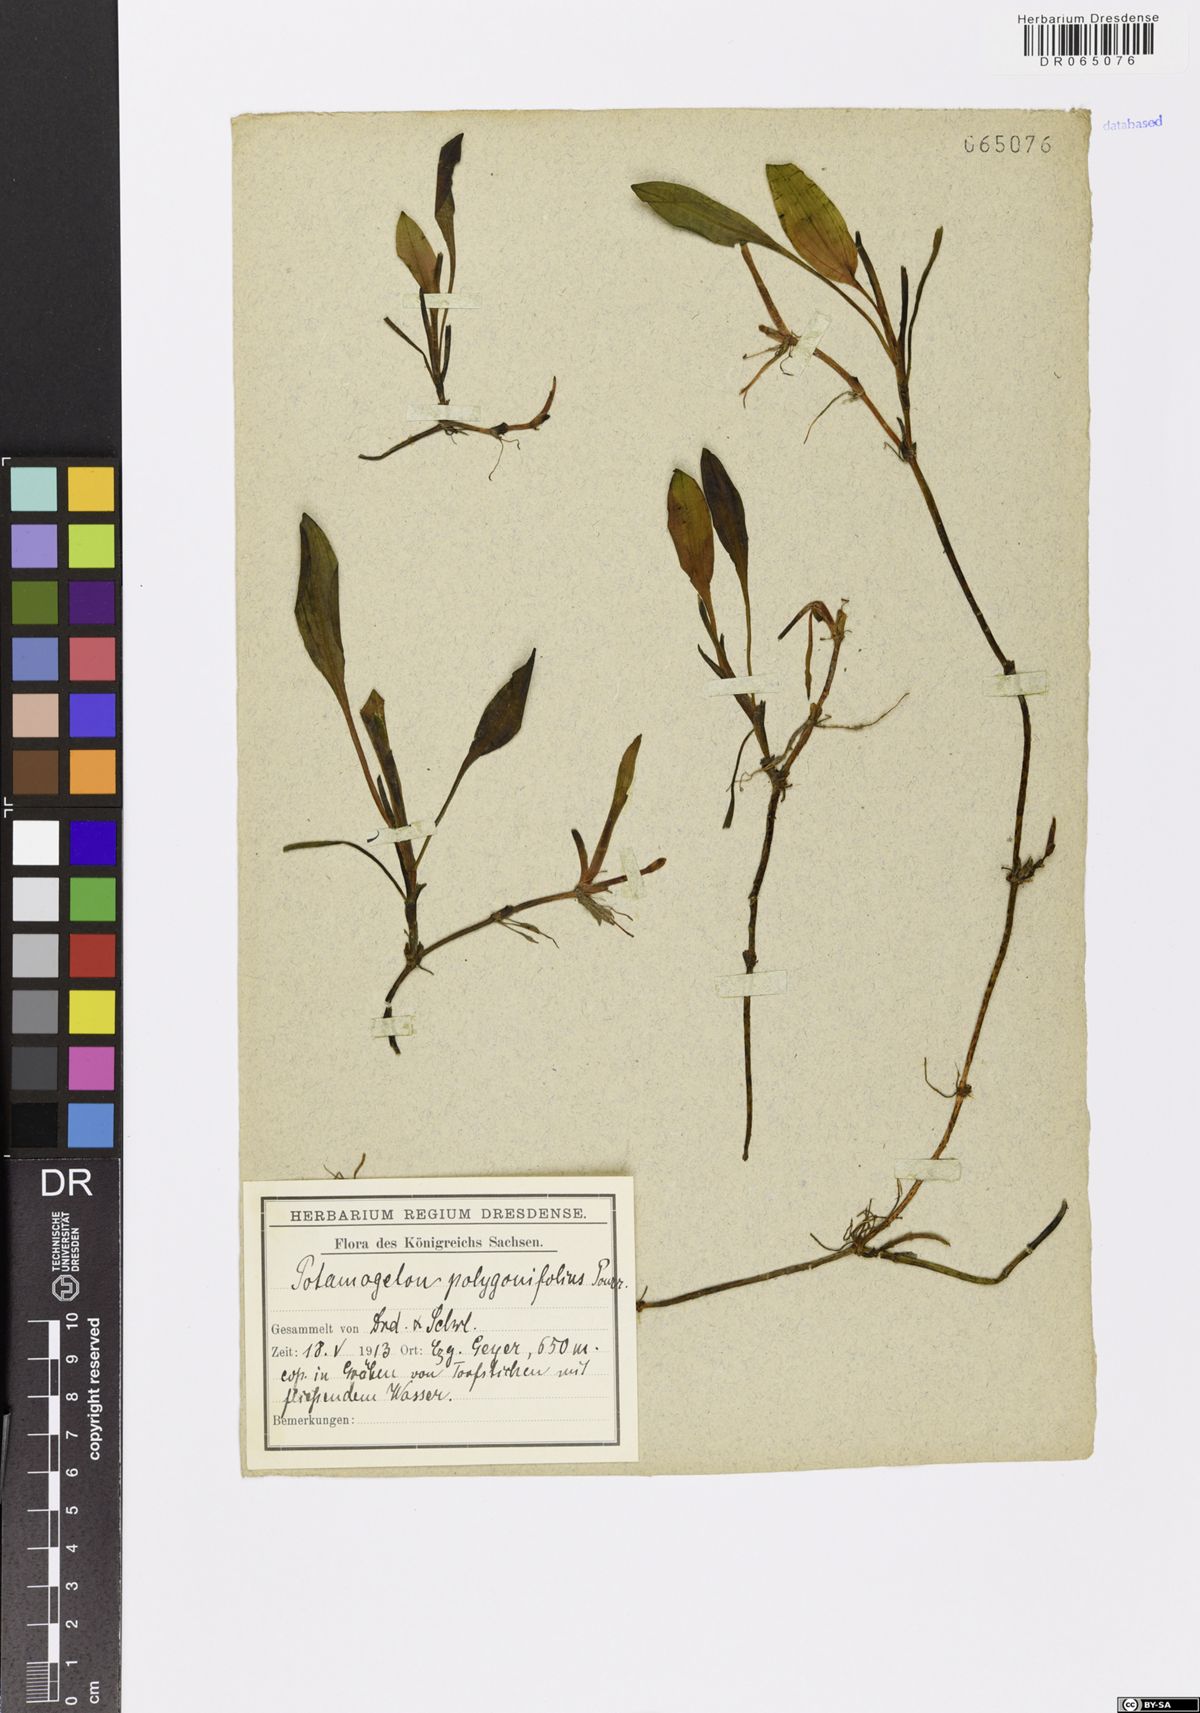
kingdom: Plantae
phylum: Tracheophyta
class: Liliopsida
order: Alismatales
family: Potamogetonaceae
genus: Potamogeton
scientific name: Potamogeton polygonifolius
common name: Bog pondweed
